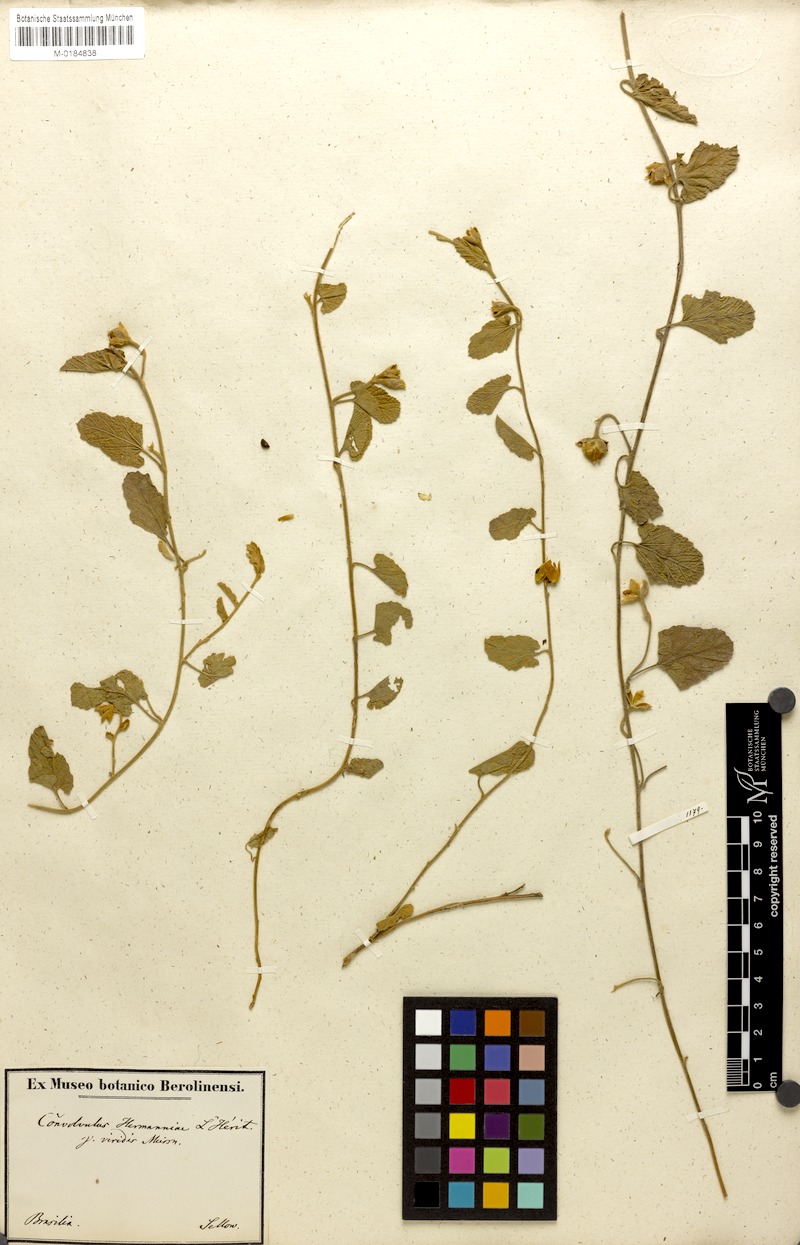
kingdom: Plantae
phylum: Tracheophyta
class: Magnoliopsida
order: Solanales
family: Convolvulaceae
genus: Convolvulus
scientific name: Convolvulus hermanniae
